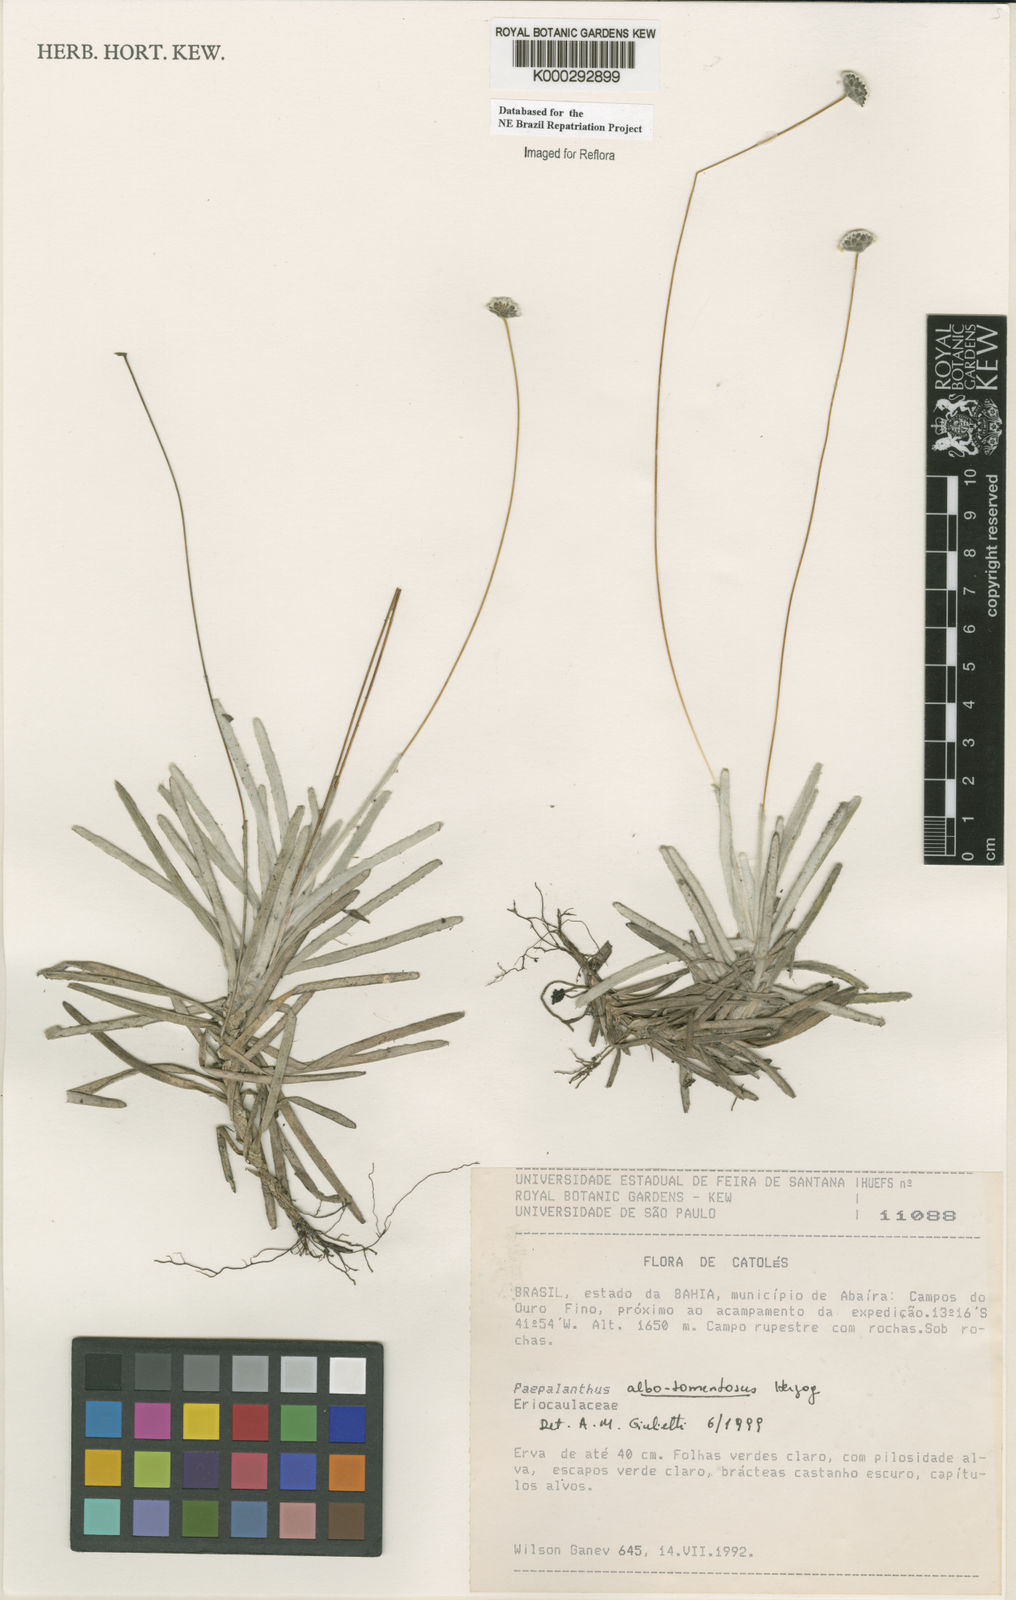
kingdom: Plantae
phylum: Tracheophyta
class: Liliopsida
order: Poales
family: Eriocaulaceae
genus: Paepalanthus
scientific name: Paepalanthus albotomentosus
